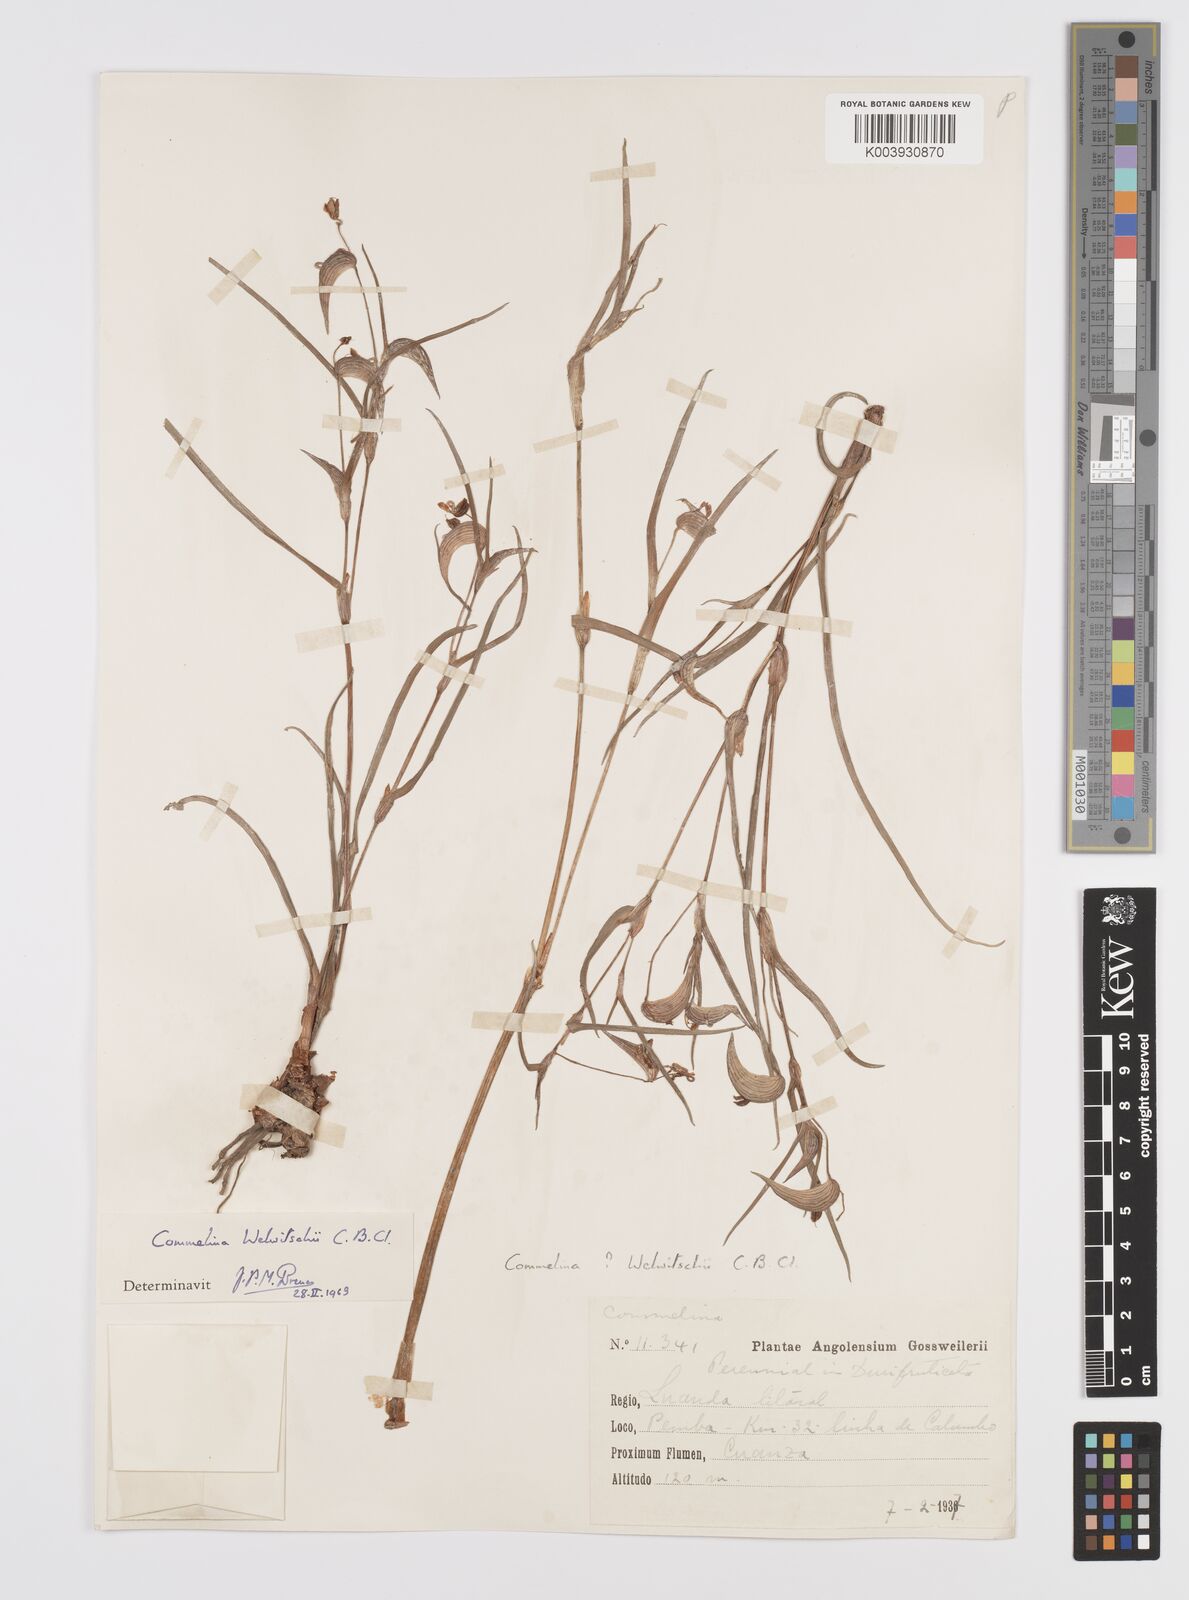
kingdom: Plantae
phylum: Tracheophyta
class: Liliopsida
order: Commelinales
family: Commelinaceae
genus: Commelina
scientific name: Commelina welwitschii
